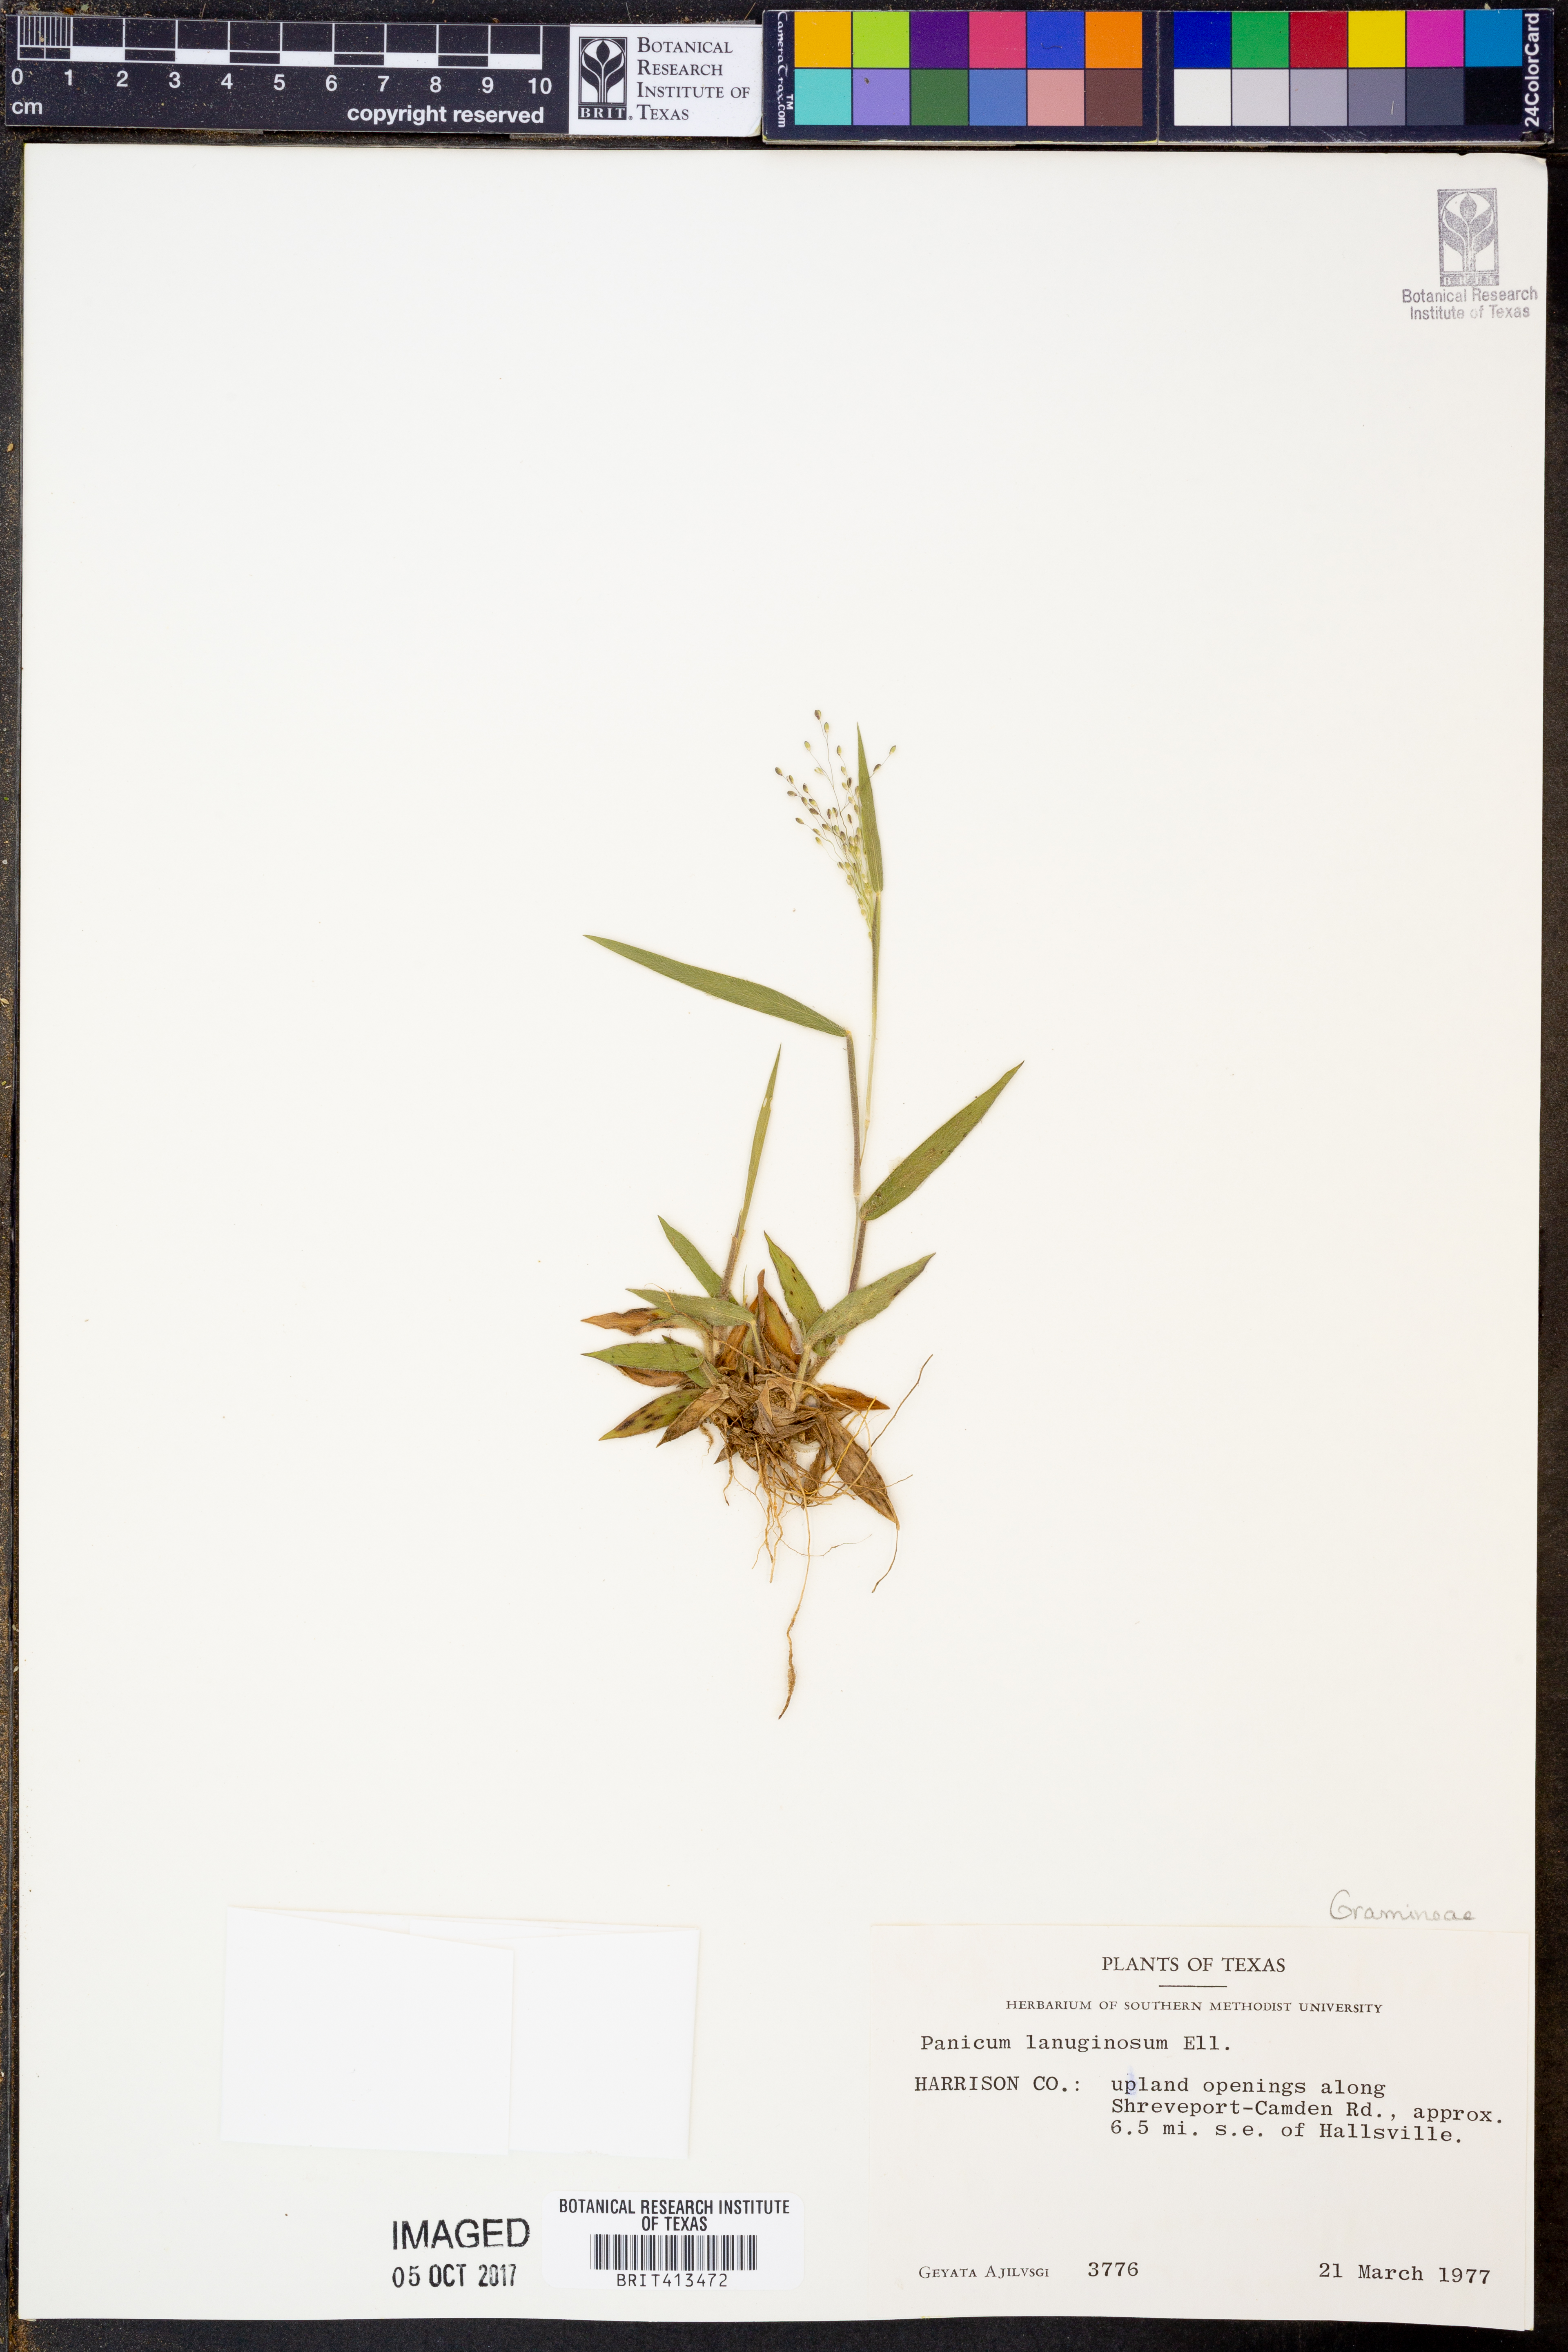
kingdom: Plantae
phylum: Tracheophyta
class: Liliopsida
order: Poales
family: Poaceae
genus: Dichanthelium
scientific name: Dichanthelium lanuginosum
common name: Woolly panicgrass
